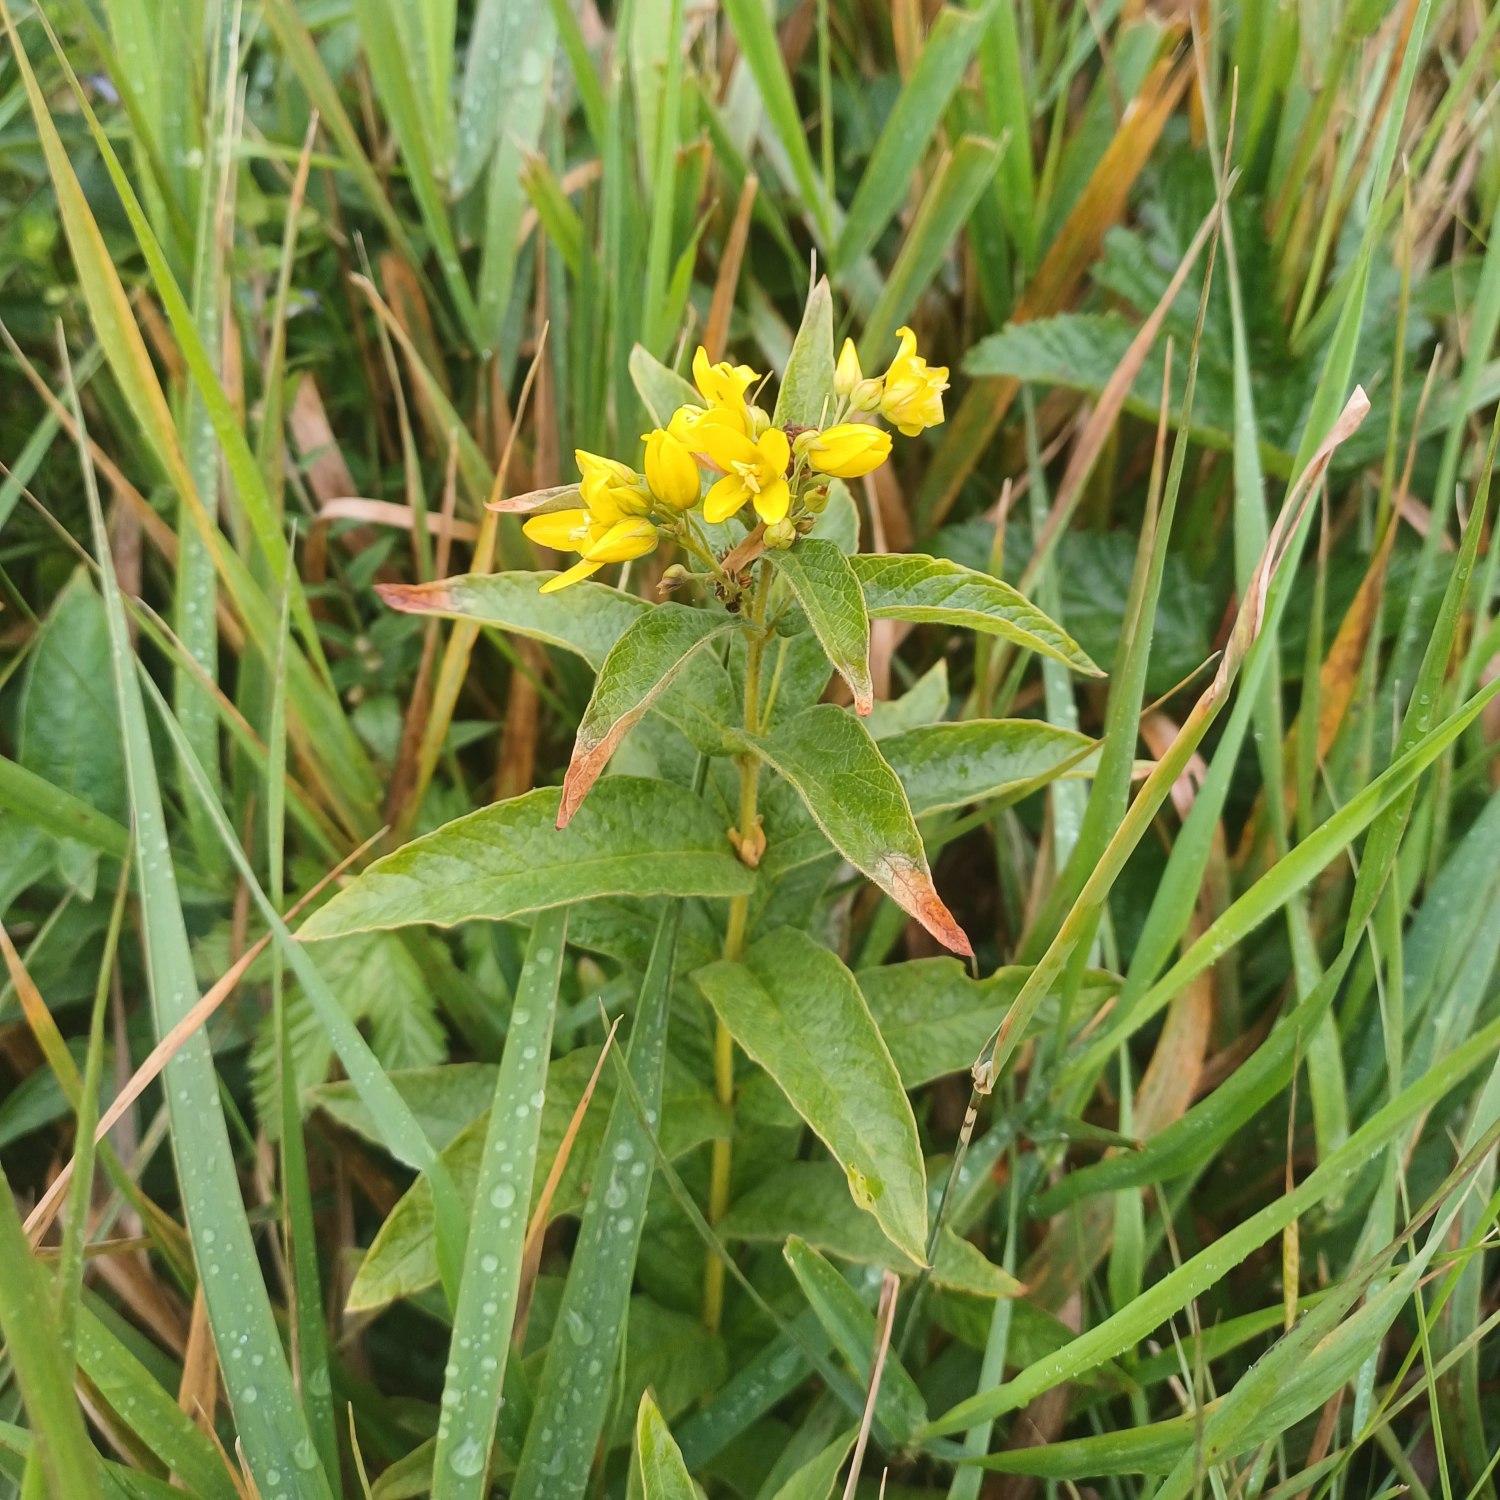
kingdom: Plantae
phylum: Tracheophyta
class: Magnoliopsida
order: Ericales
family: Primulaceae
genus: Lysimachia
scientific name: Lysimachia vulgaris
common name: Almindelig fredløs
